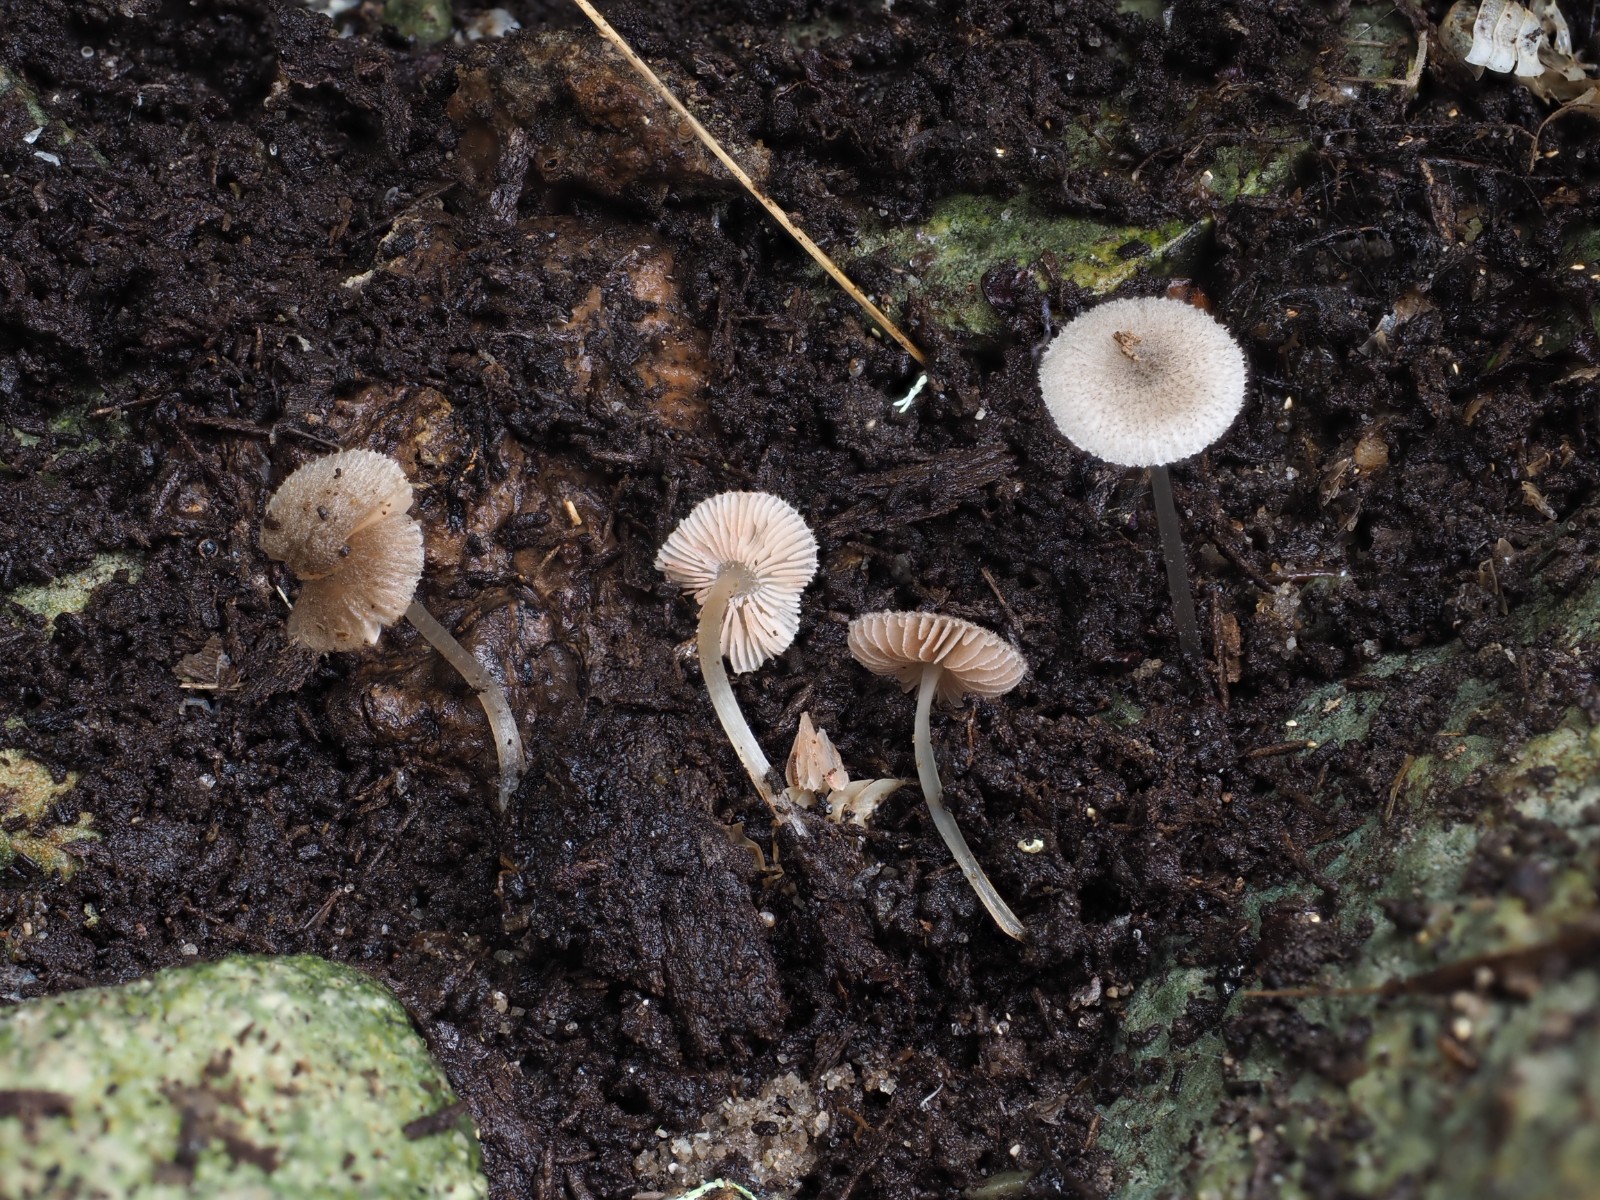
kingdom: Fungi
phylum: Basidiomycota
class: Agaricomycetes
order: Agaricales
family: Pluteaceae
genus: Pluteus
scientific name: Pluteus exiguus
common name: finskællet skærmhat
